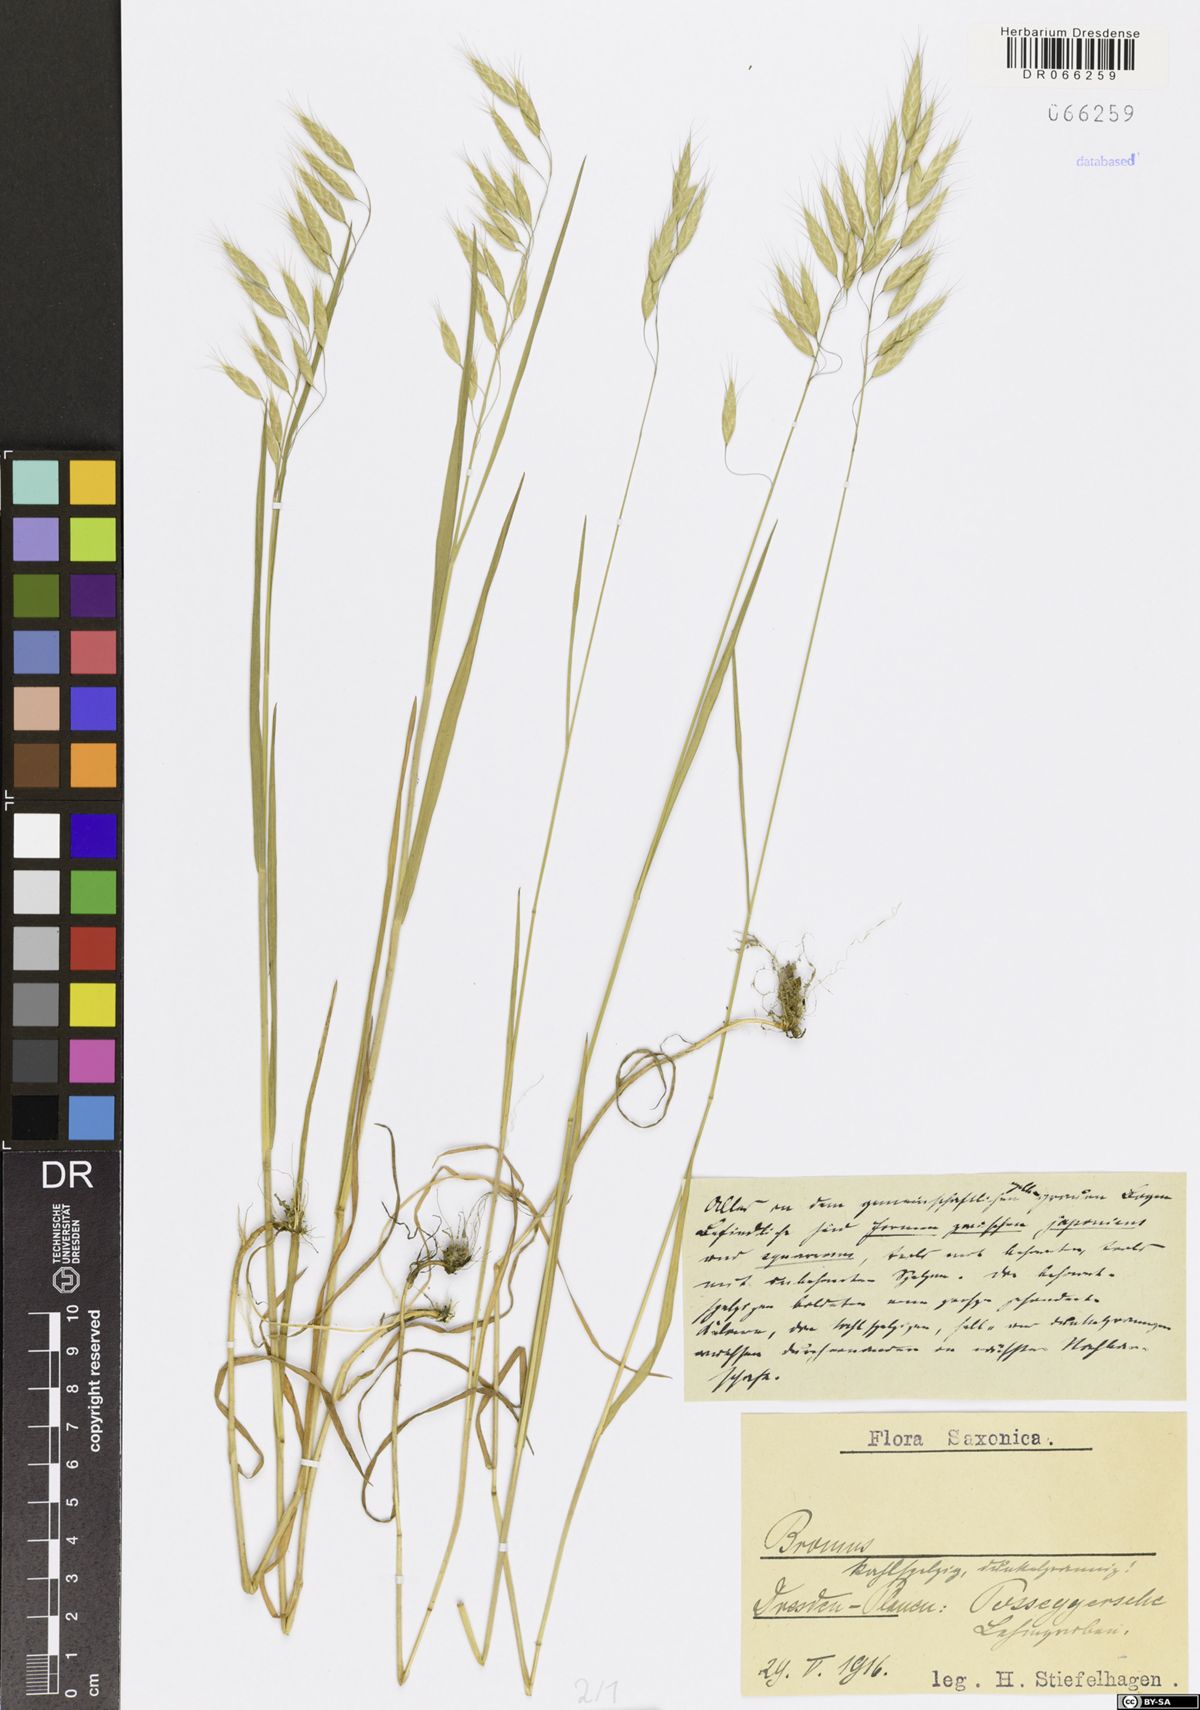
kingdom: Plantae
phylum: Tracheophyta
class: Liliopsida
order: Poales
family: Poaceae
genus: Bromus
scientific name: Bromus
